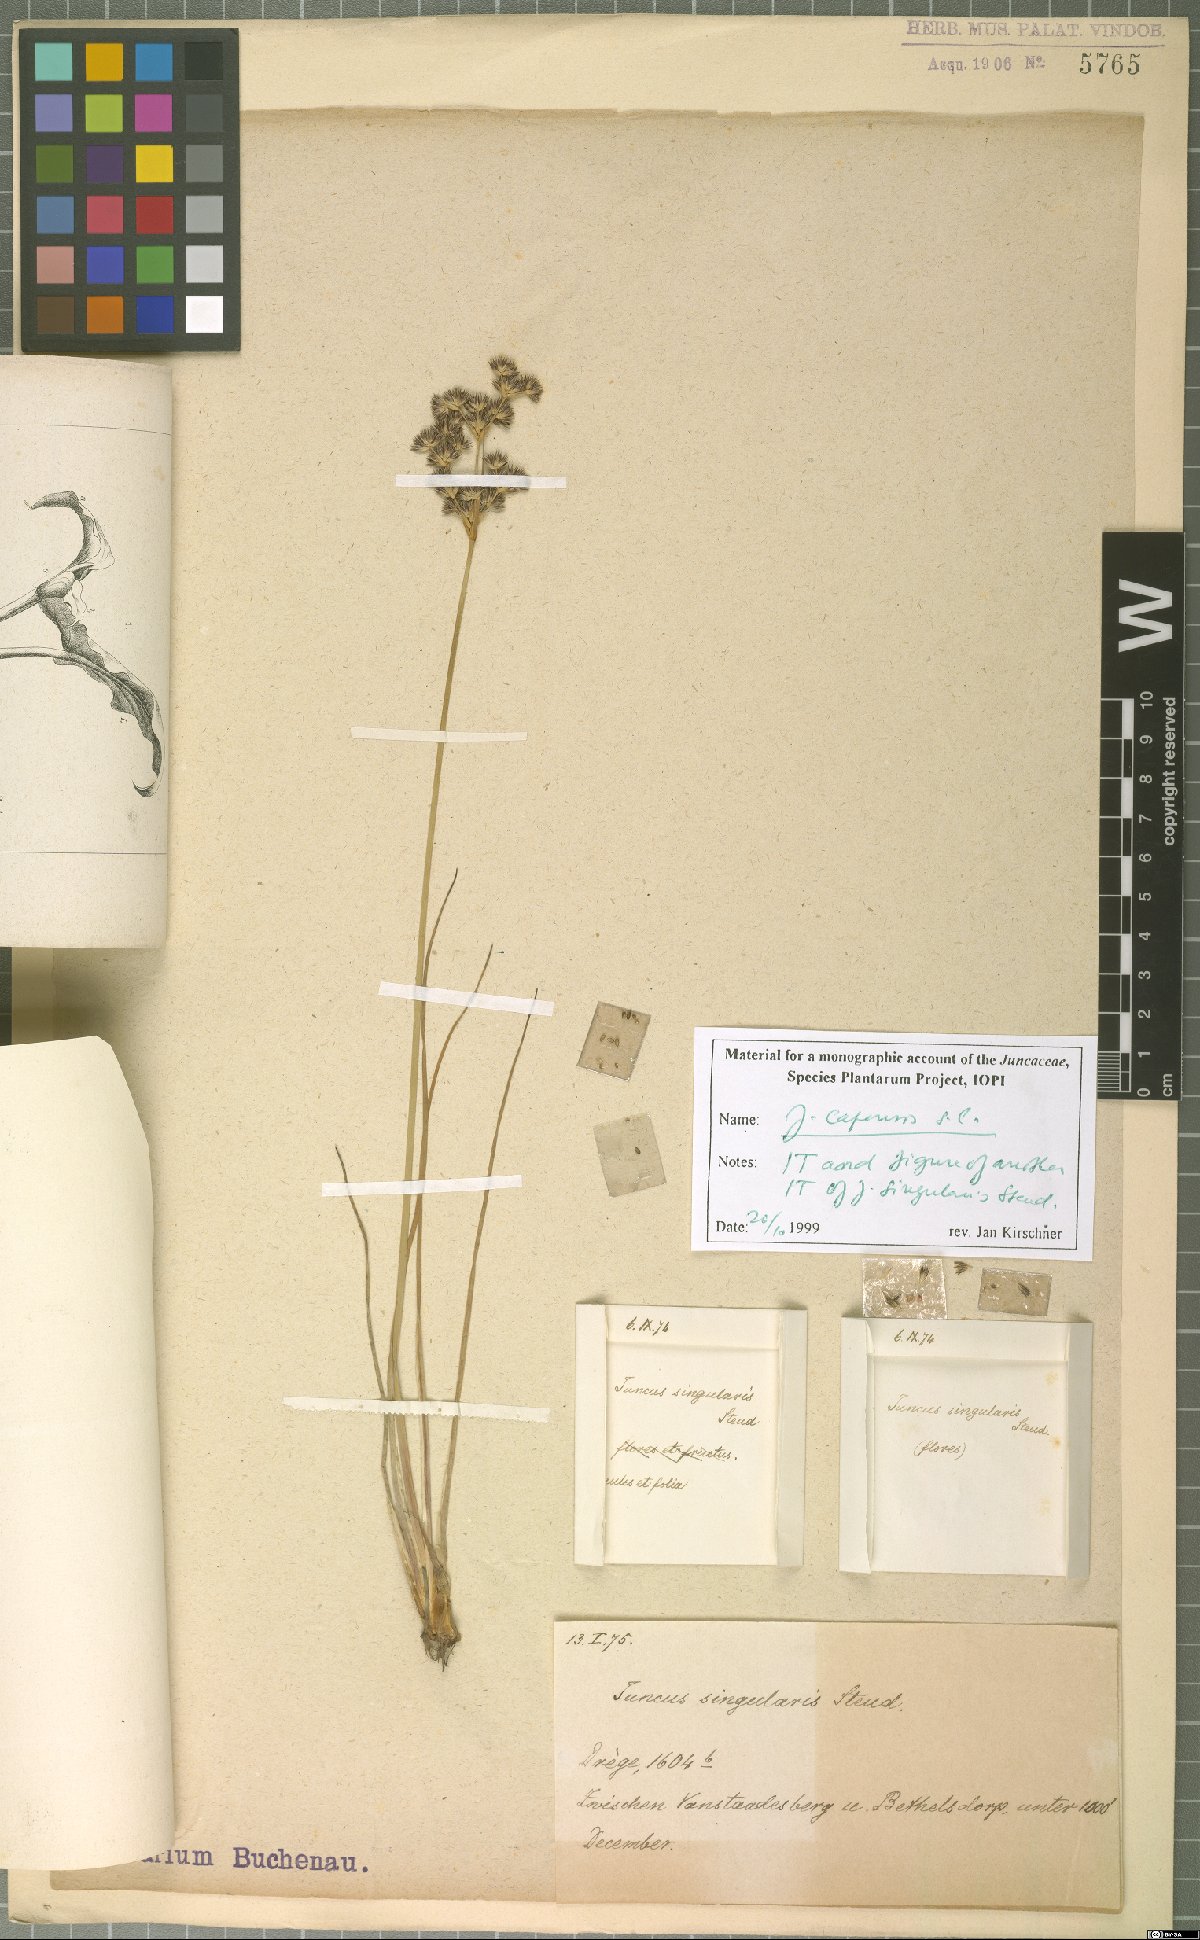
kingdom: Plantae
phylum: Tracheophyta
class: Liliopsida
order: Poales
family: Juncaceae
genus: Juncus
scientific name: Juncus capensis
